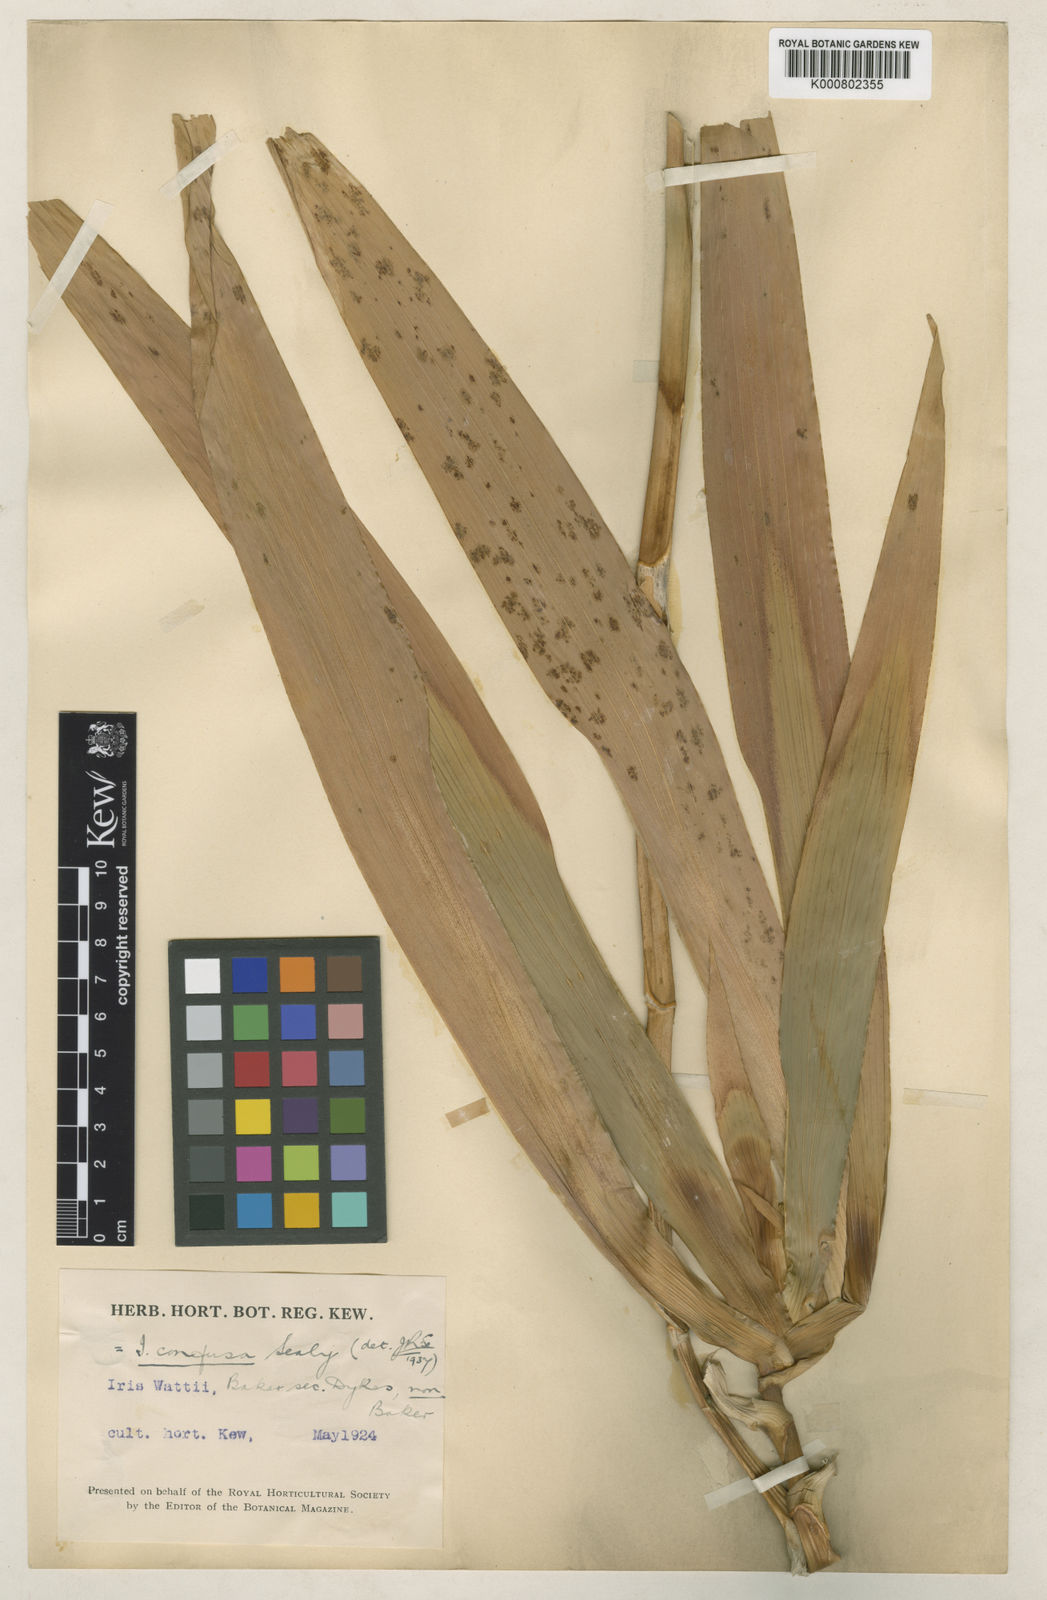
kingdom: Plantae
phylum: Tracheophyta
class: Liliopsida
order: Asparagales
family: Iridaceae
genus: Iris
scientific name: Iris wattii
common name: Fan-shape iris
